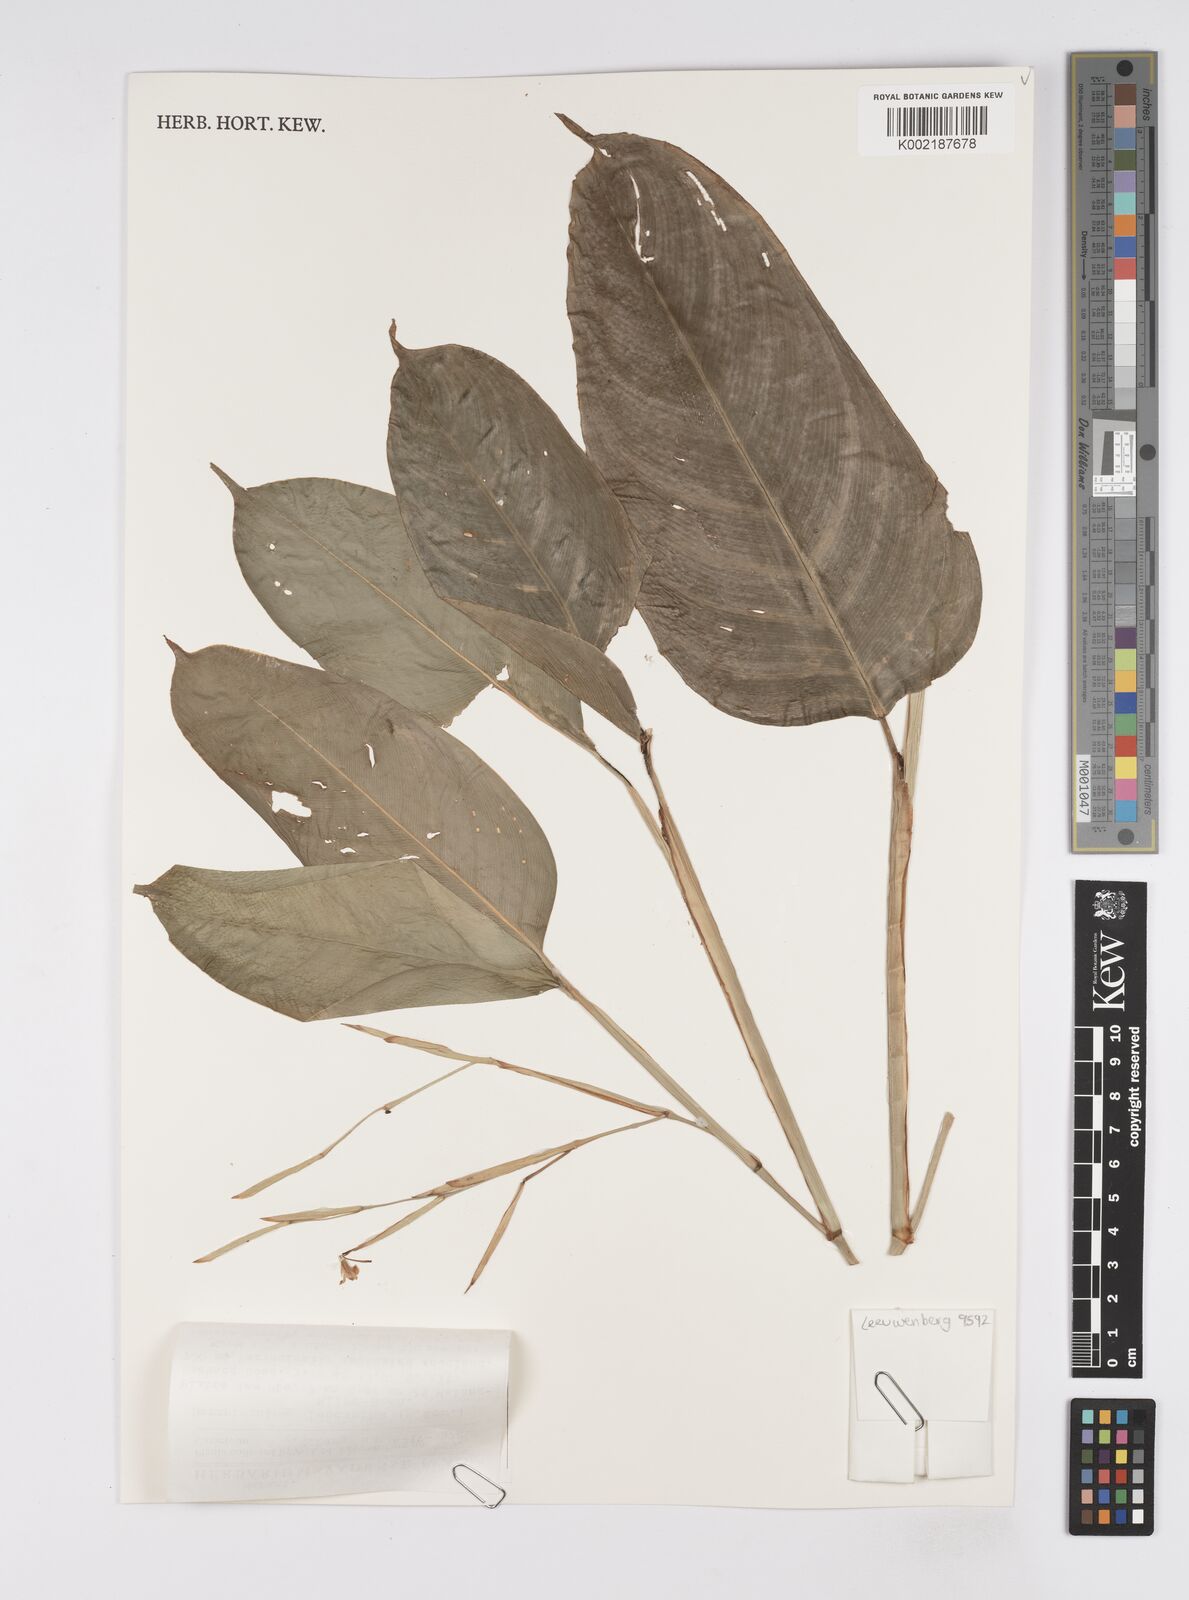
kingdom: Plantae
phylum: Tracheophyta
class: Liliopsida
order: Zingiberales
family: Marantaceae
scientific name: Marantaceae
